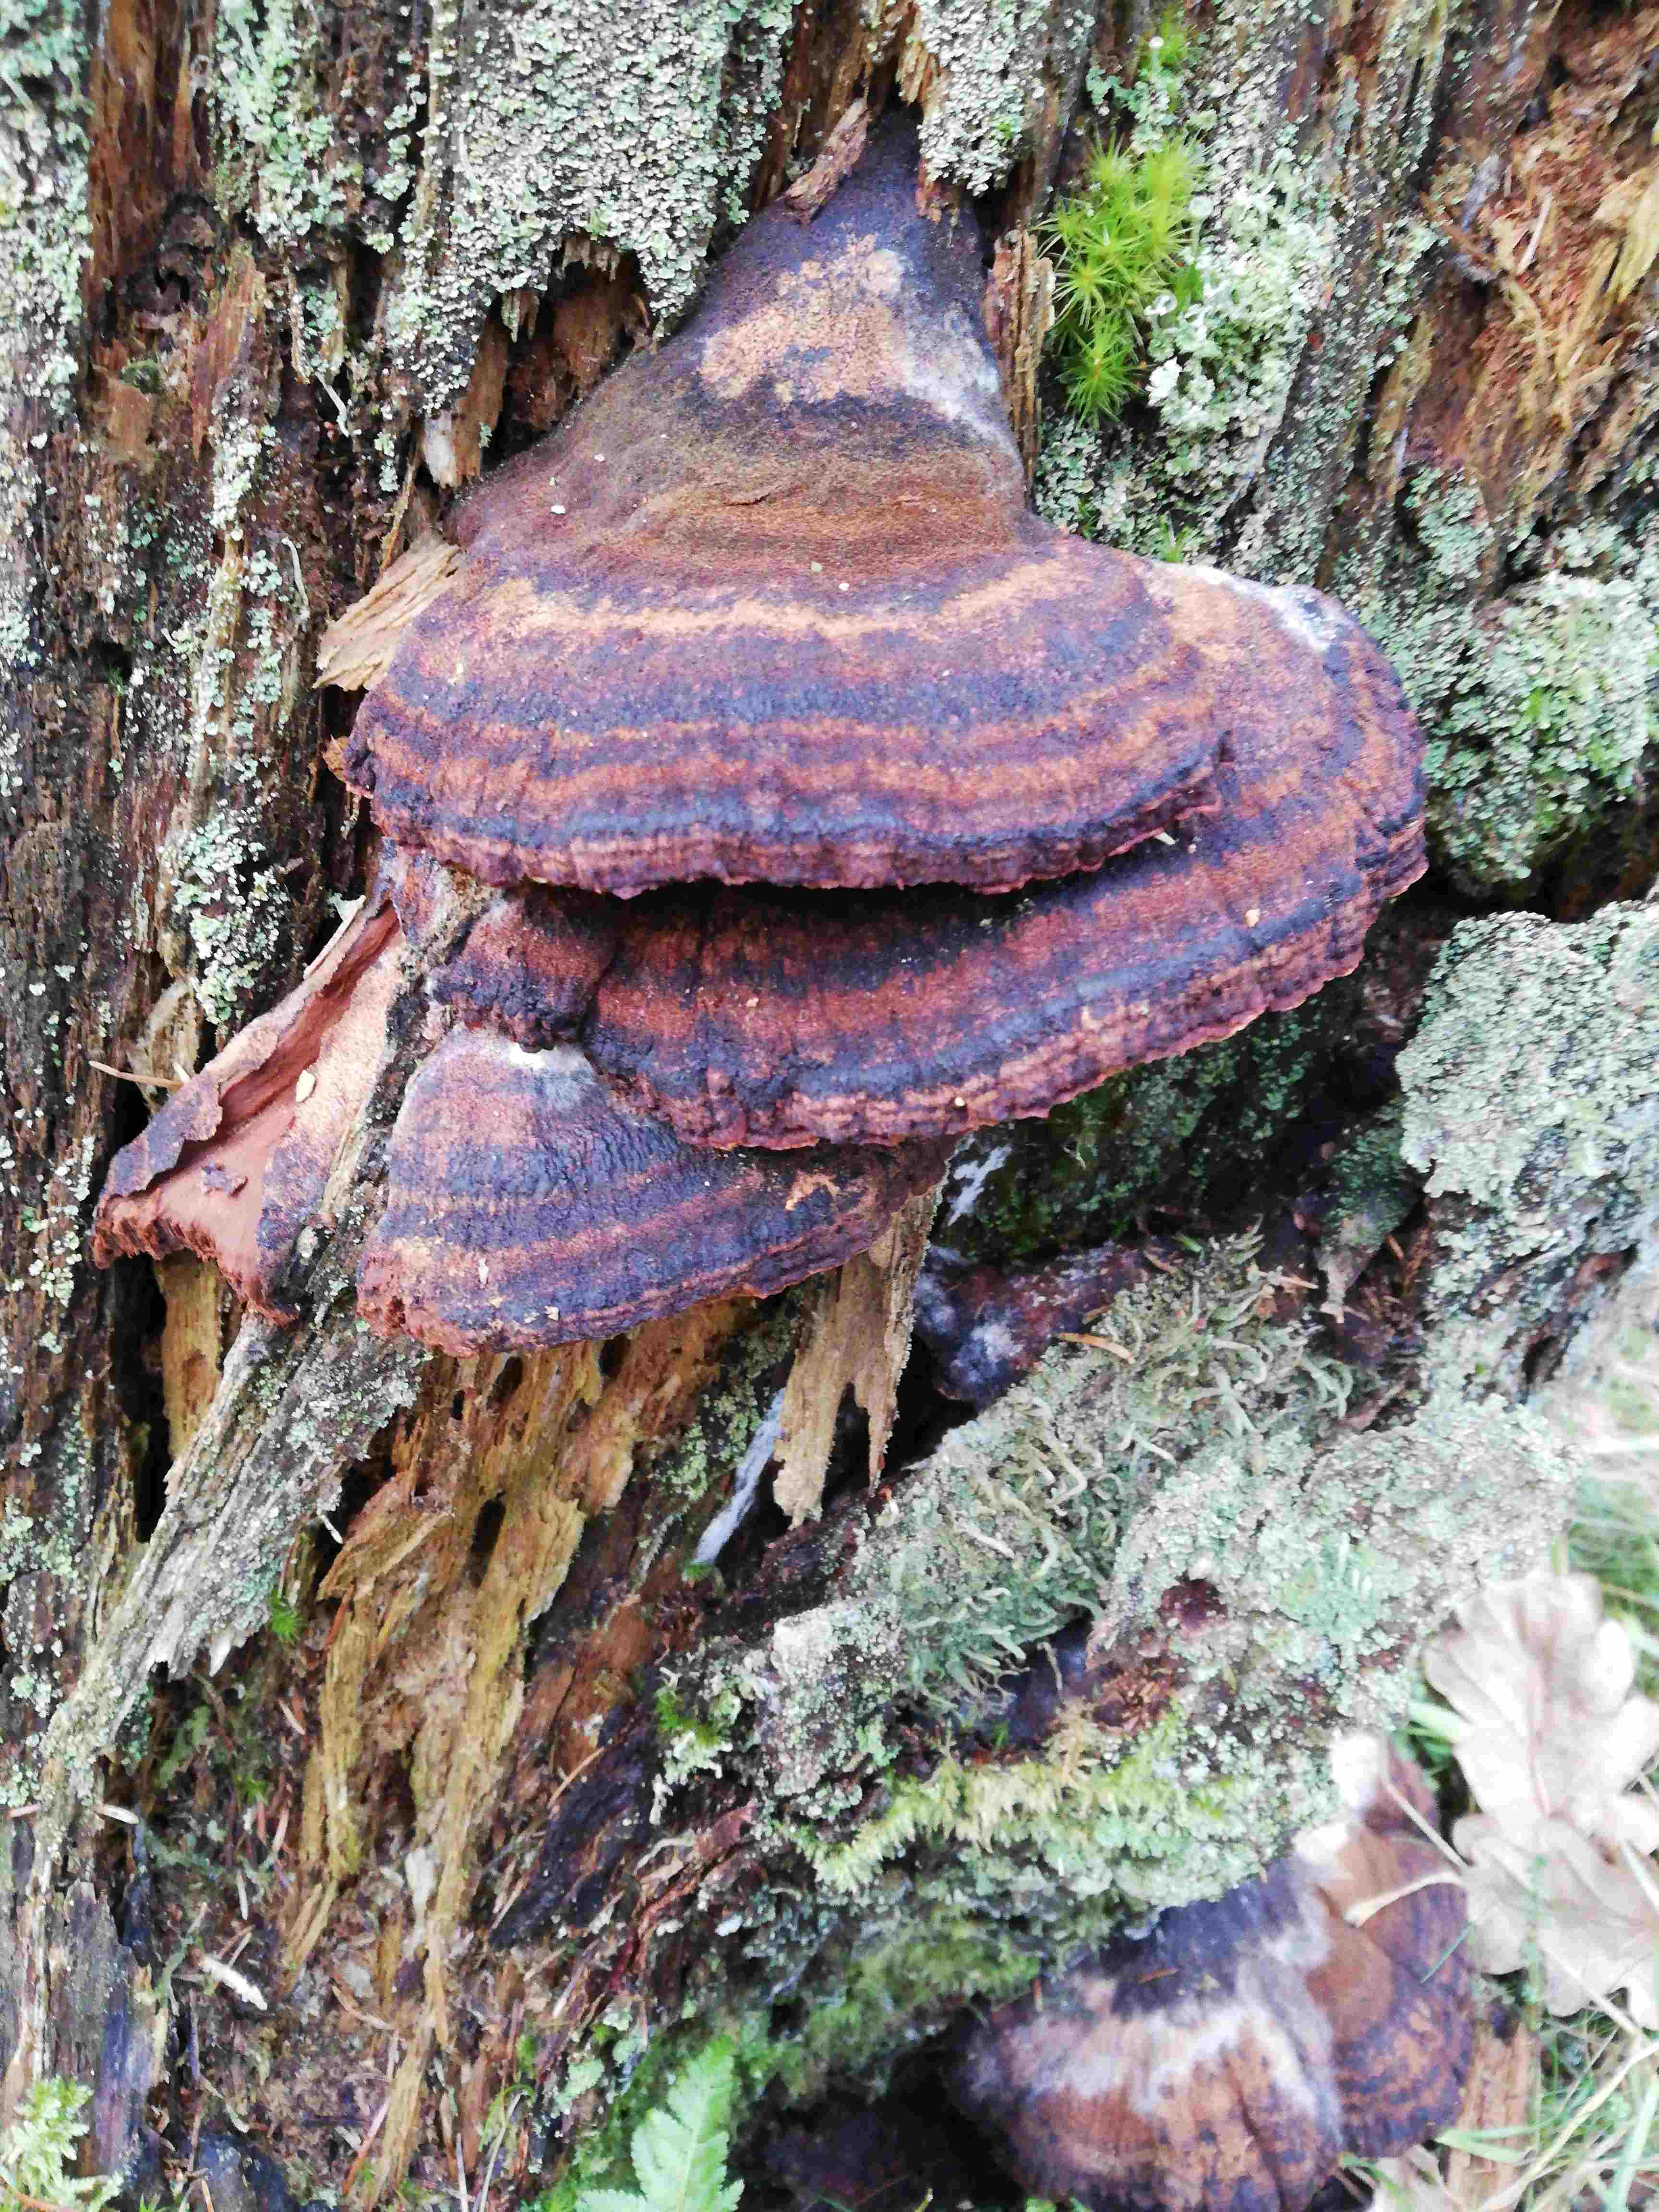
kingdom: Fungi
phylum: Basidiomycota
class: Agaricomycetes
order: Polyporales
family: Ischnodermataceae
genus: Ischnoderma
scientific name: Ischnoderma benzoinum
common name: gran-tjæreporesvamp
